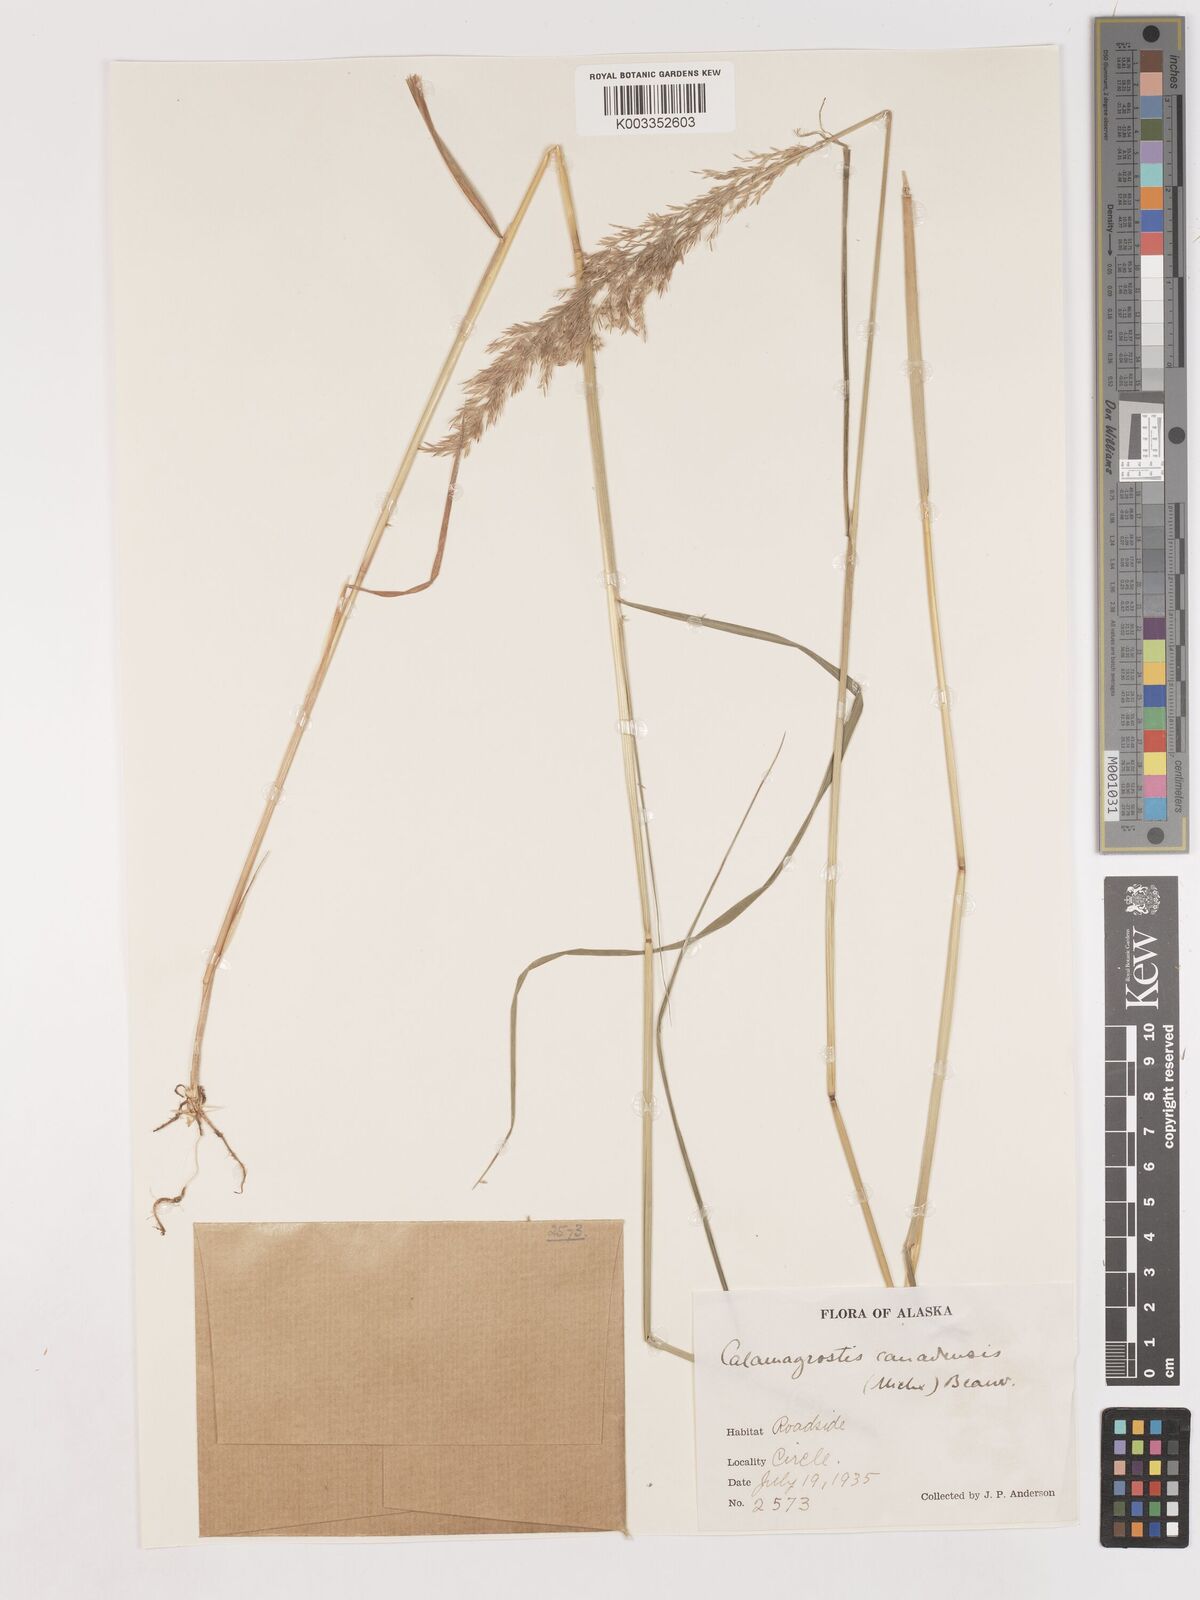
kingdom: Plantae
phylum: Tracheophyta
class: Liliopsida
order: Poales
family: Poaceae
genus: Calamagrostis
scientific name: Calamagrostis canadensis
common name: Canada bluejoint
